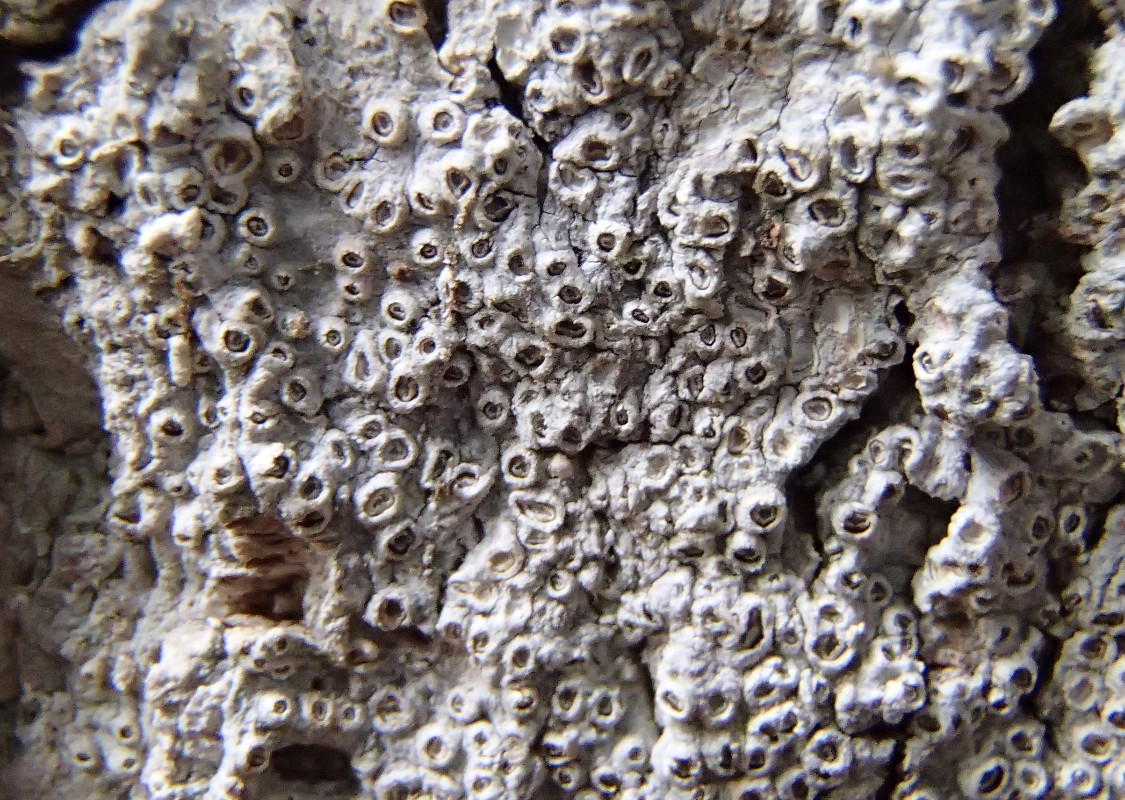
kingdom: Fungi
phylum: Ascomycota
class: Lecanoromycetes
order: Ostropales
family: Graphidaceae
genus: Thelotrema
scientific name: Thelotrema lepadinum
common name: almindelig slørkantlav
